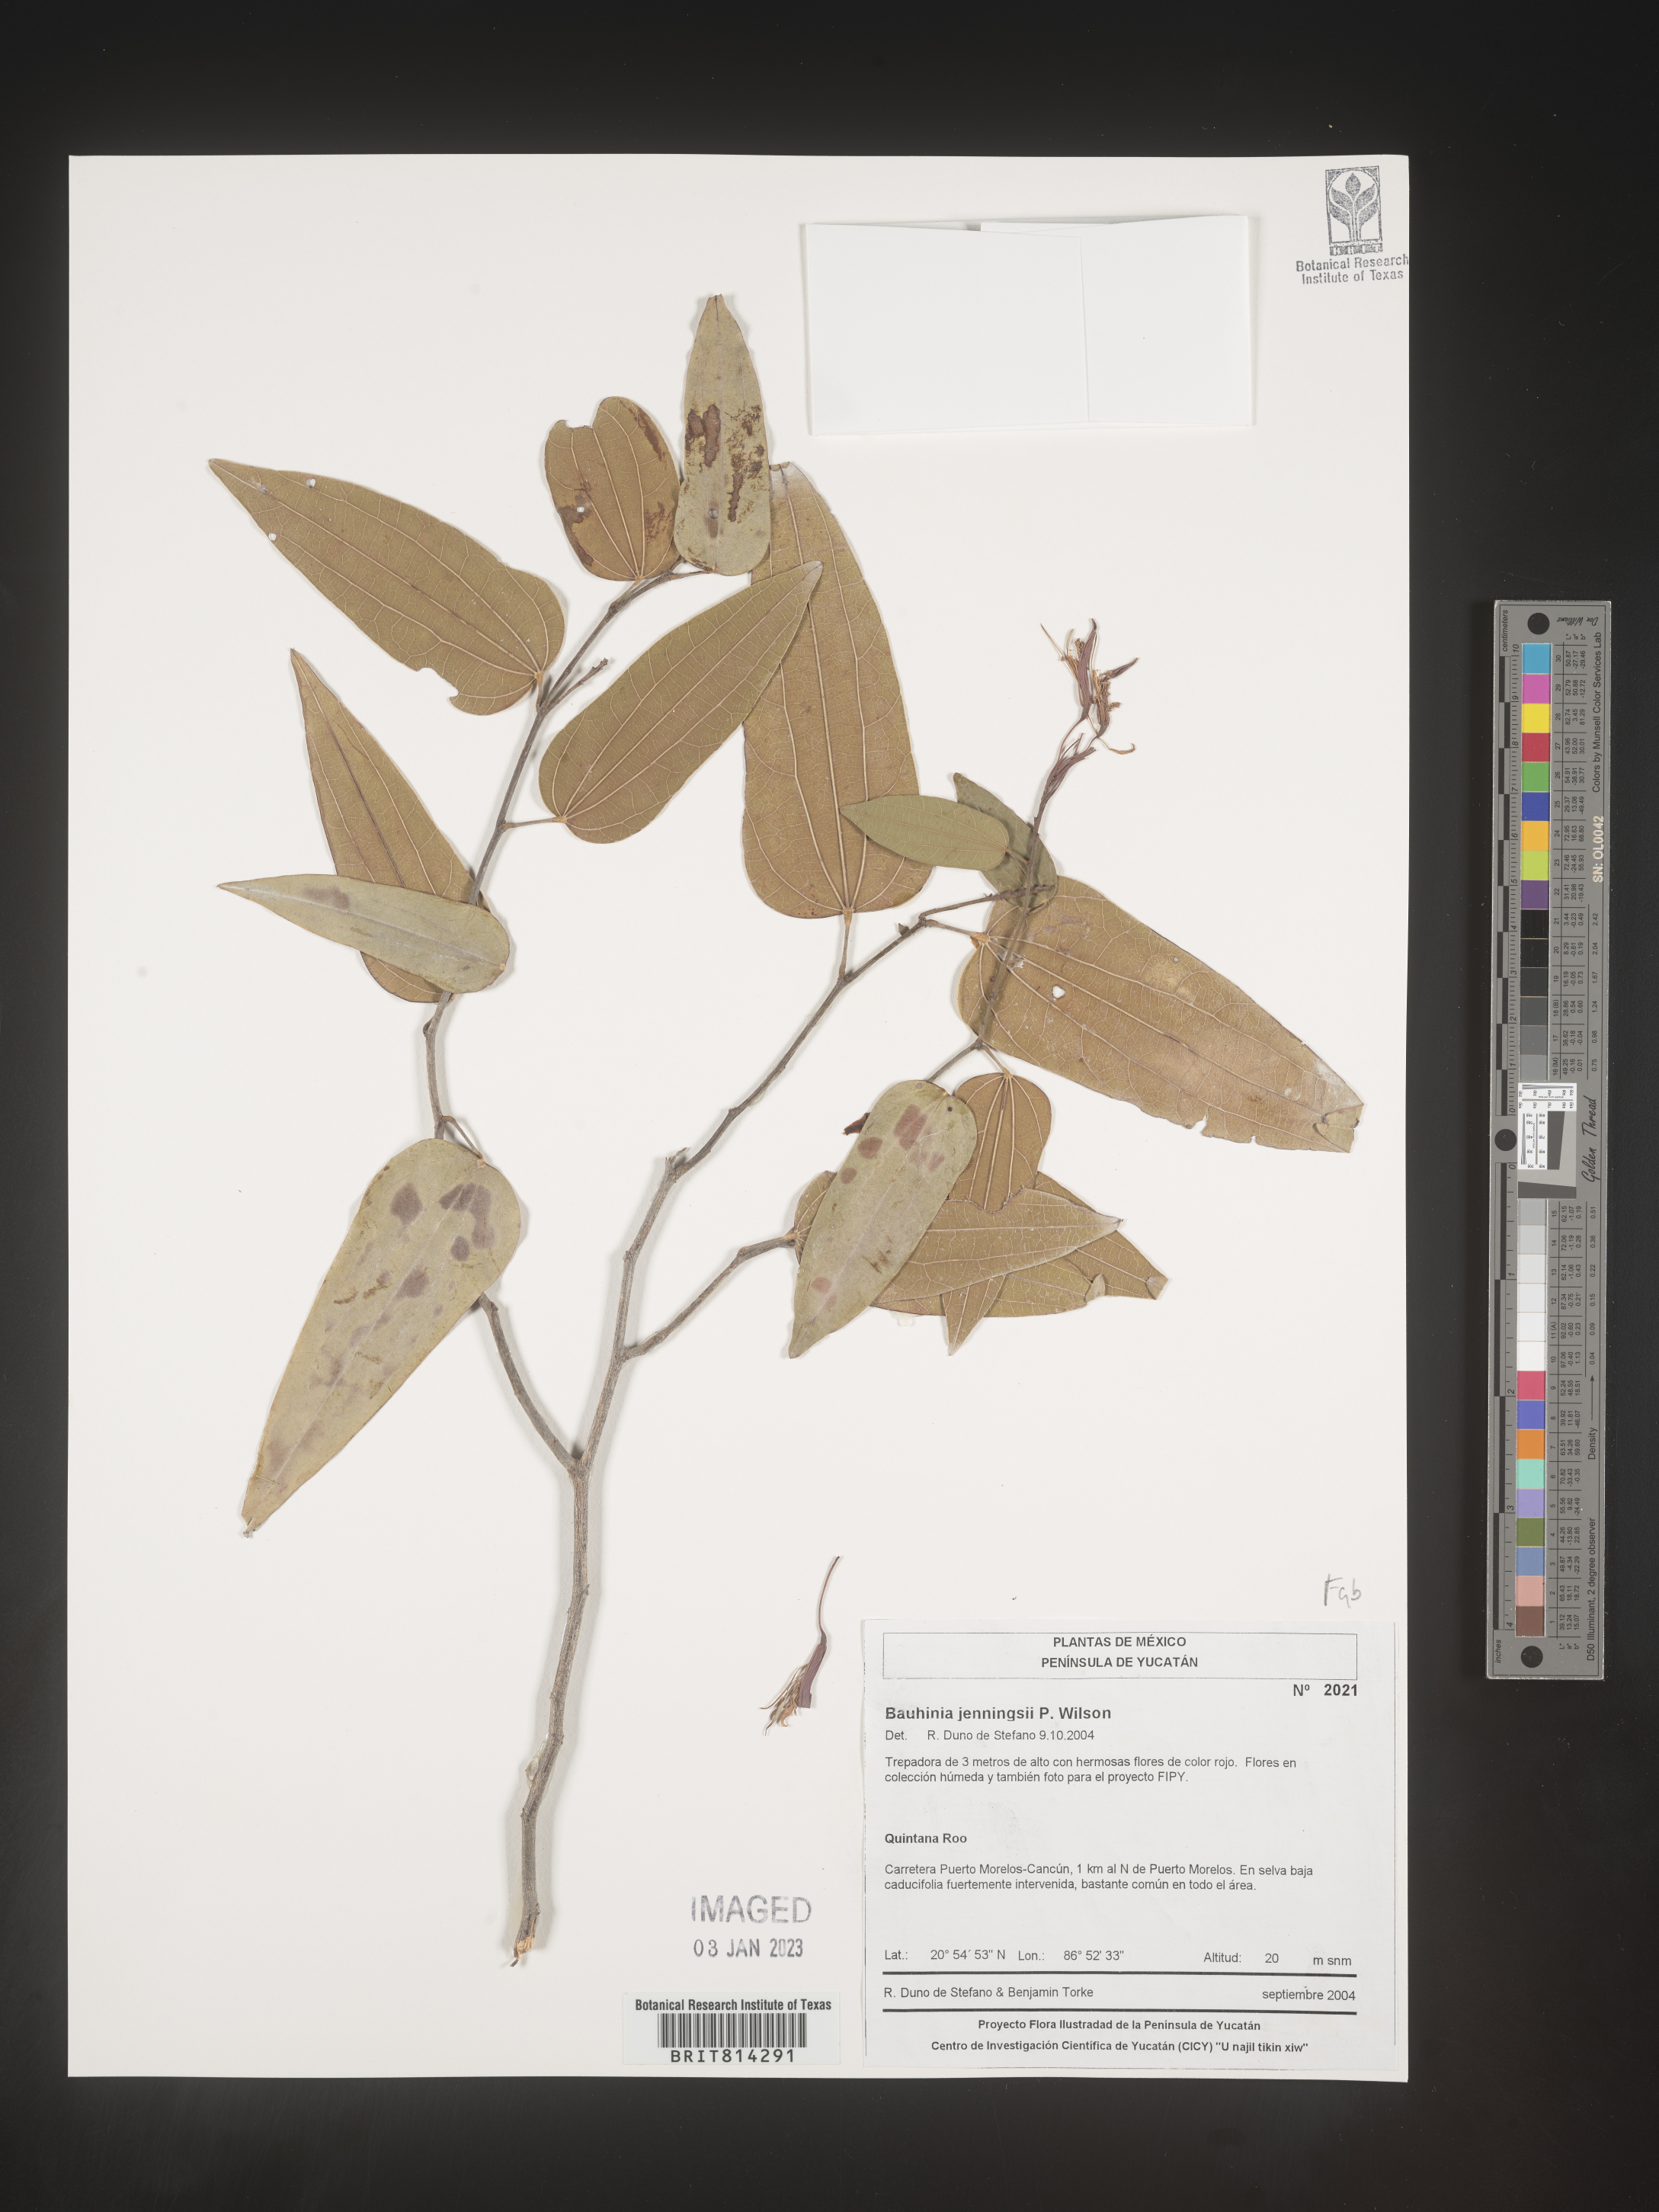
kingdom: Plantae
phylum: Tracheophyta
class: Magnoliopsida
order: Fabales
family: Fabaceae
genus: Bauhinia
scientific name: Bauhinia
